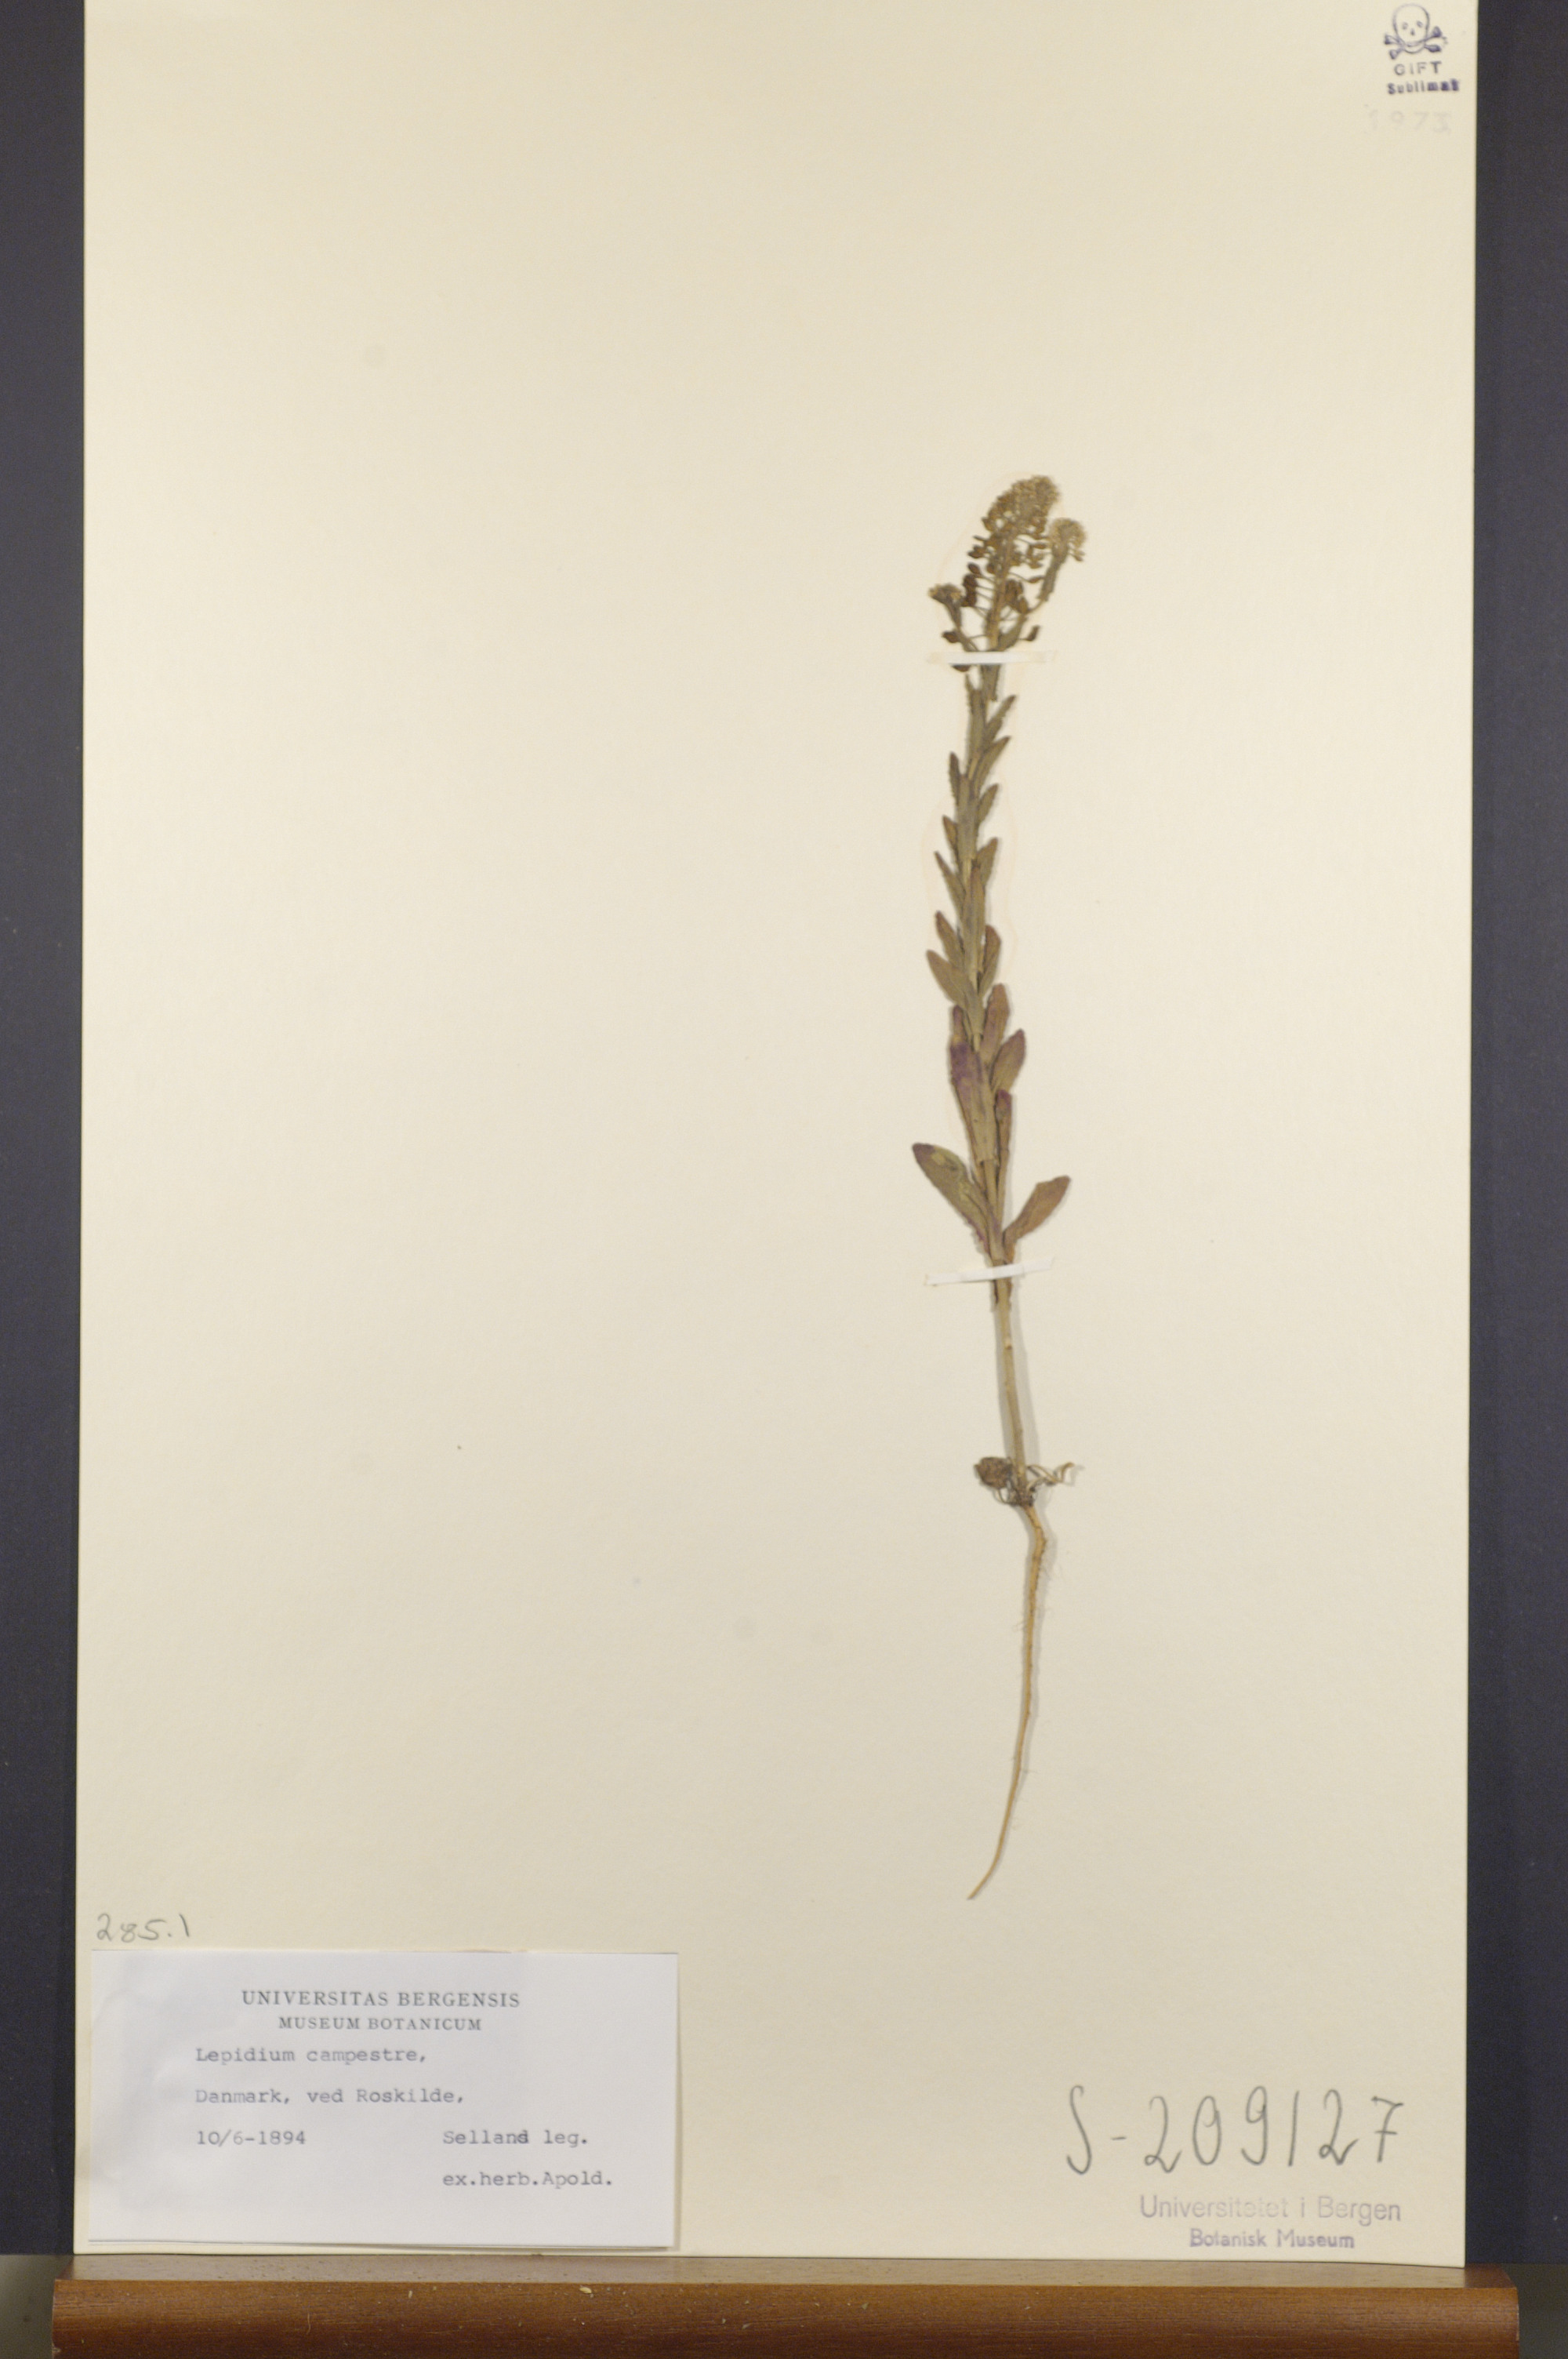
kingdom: Plantae
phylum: Tracheophyta
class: Magnoliopsida
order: Brassicales
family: Brassicaceae
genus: Lepidium
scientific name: Lepidium campestre
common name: Field pepperwort
